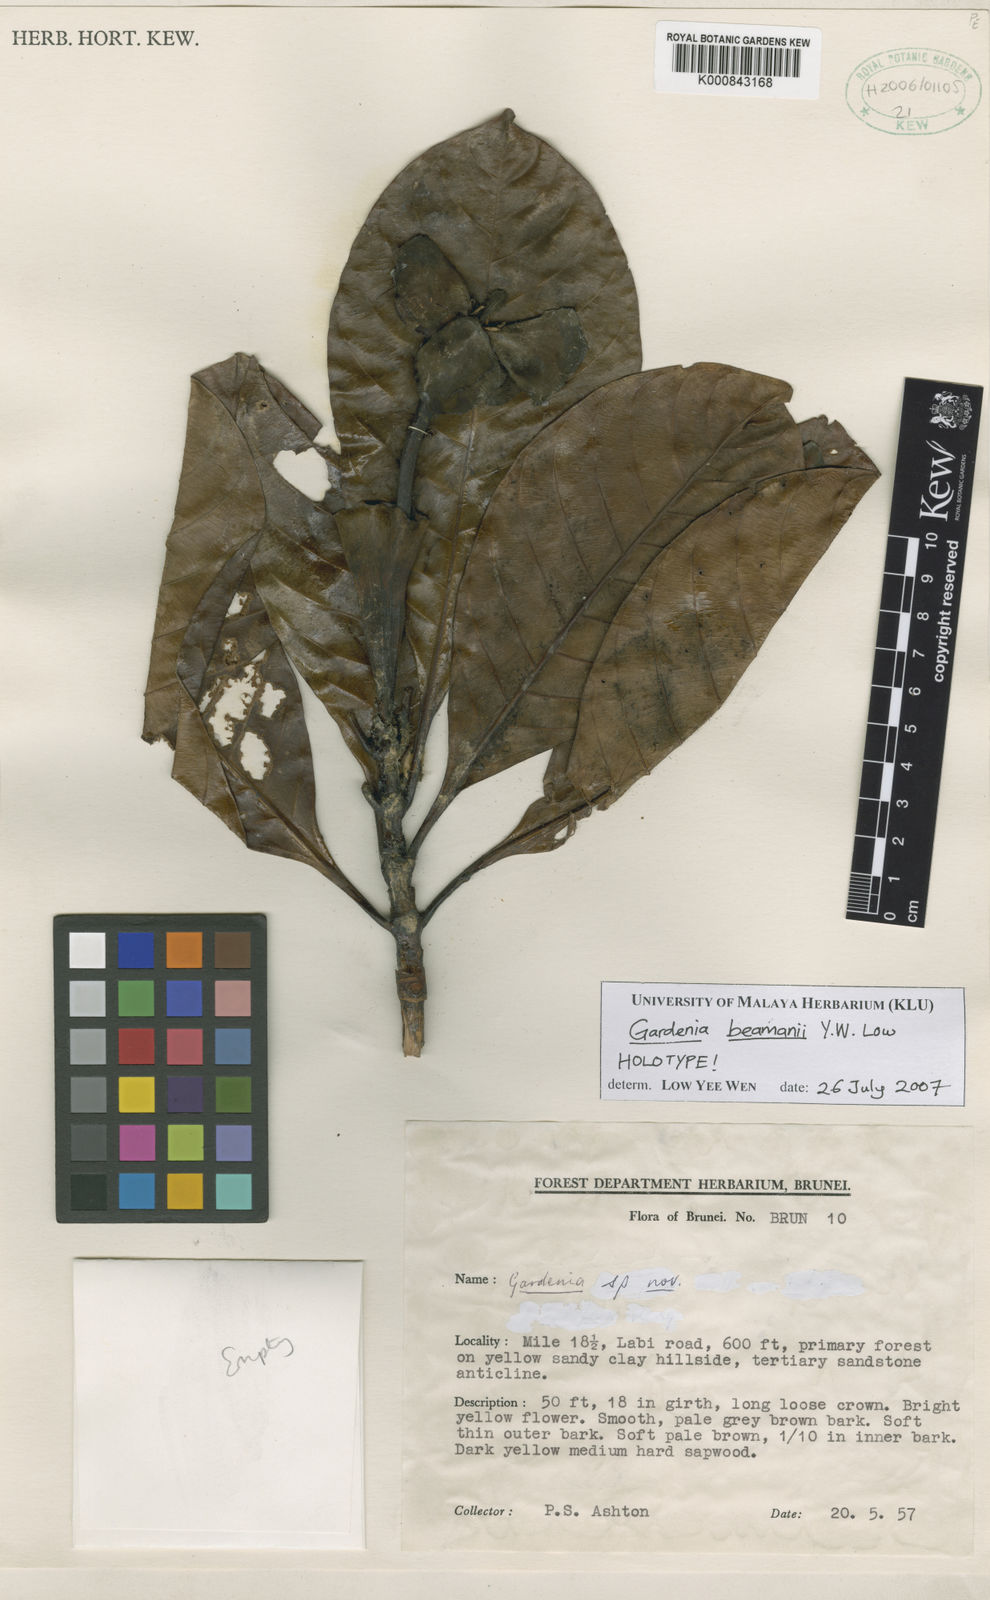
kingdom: Plantae
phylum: Tracheophyta
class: Magnoliopsida
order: Gentianales
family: Rubiaceae
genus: Gardenia
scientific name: Gardenia beamanii
